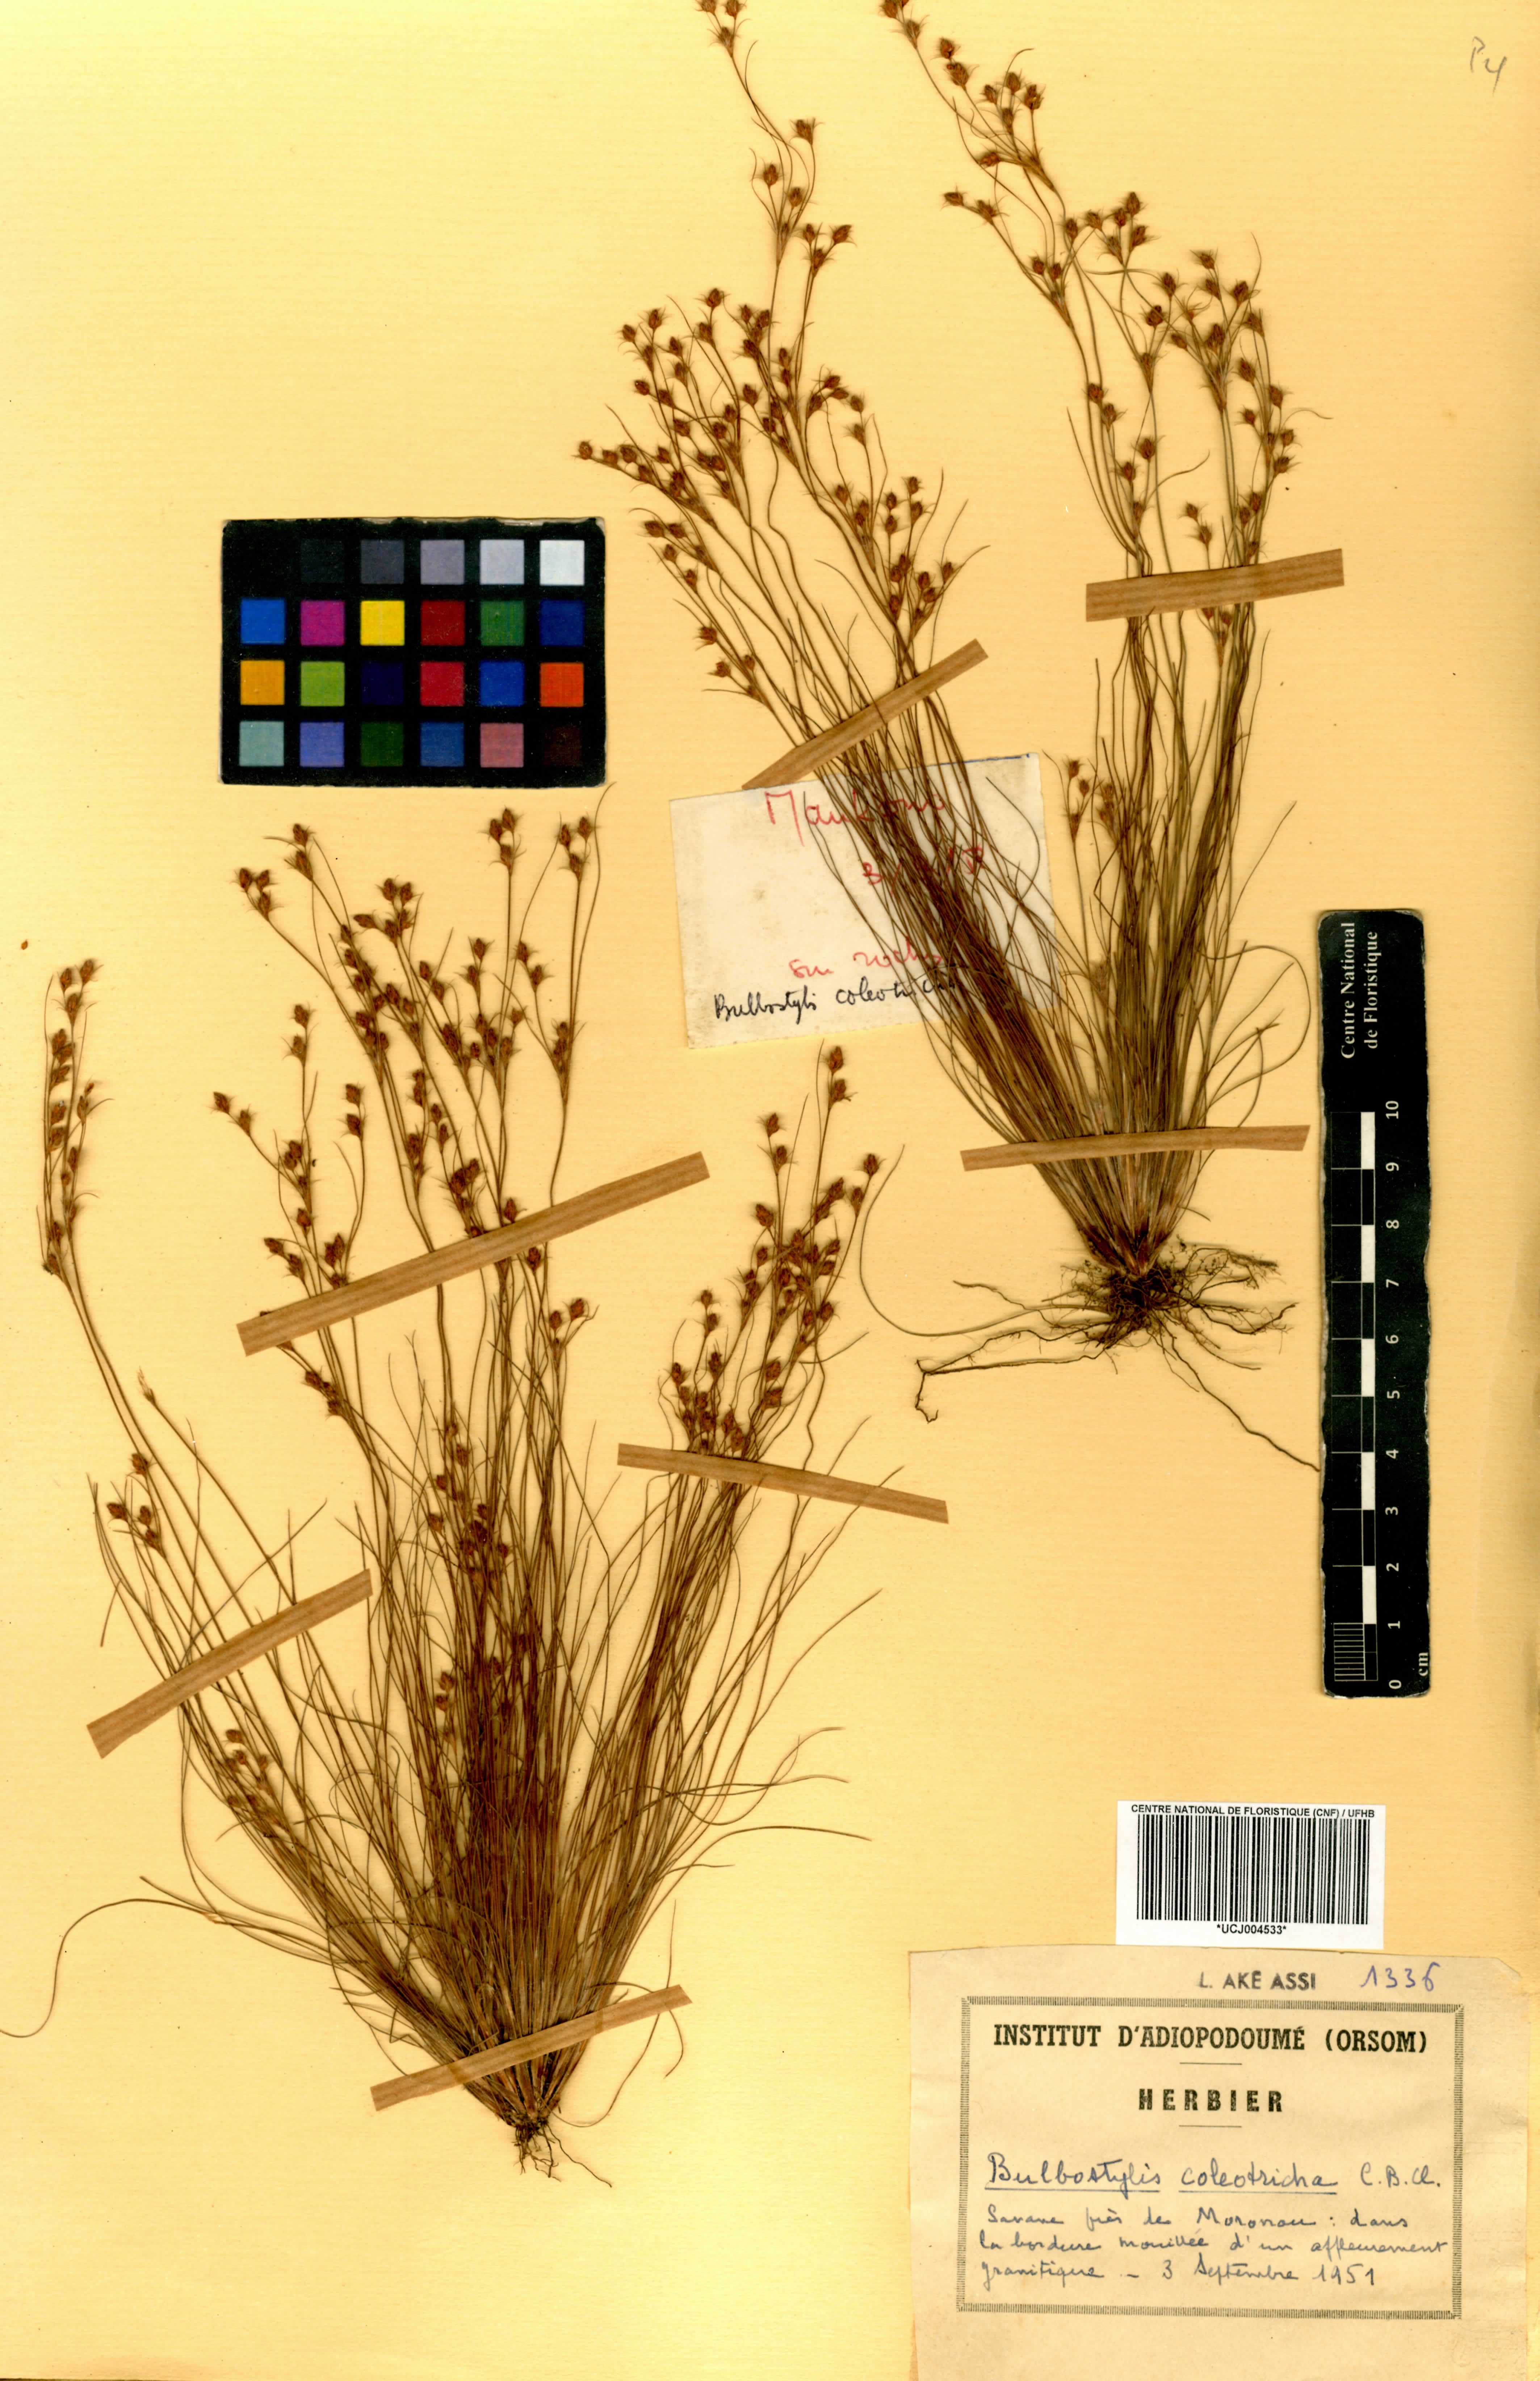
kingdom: Plantae
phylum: Tracheophyta
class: Liliopsida
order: Poales
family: Cyperaceae
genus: Bulbostylis
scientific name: Bulbostylis coleotricha
